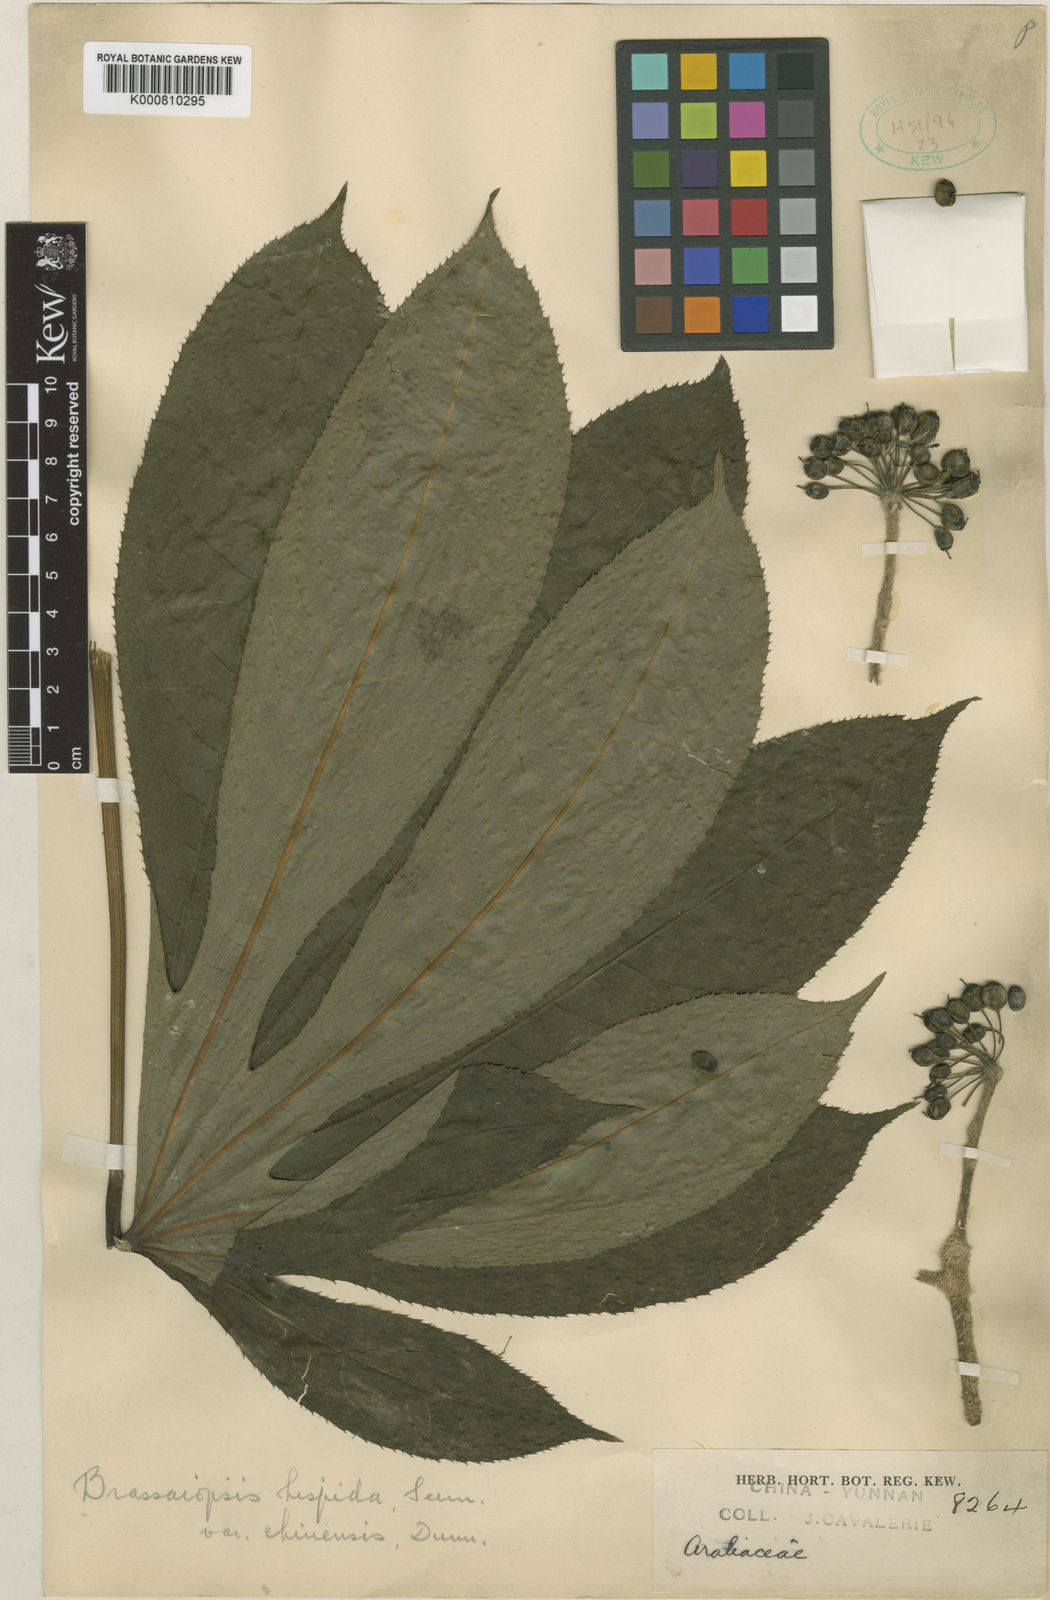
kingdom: Plantae
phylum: Tracheophyta
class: Magnoliopsida
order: Apiales
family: Araliaceae
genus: Brassaiopsis
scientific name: Brassaiopsis hispida
